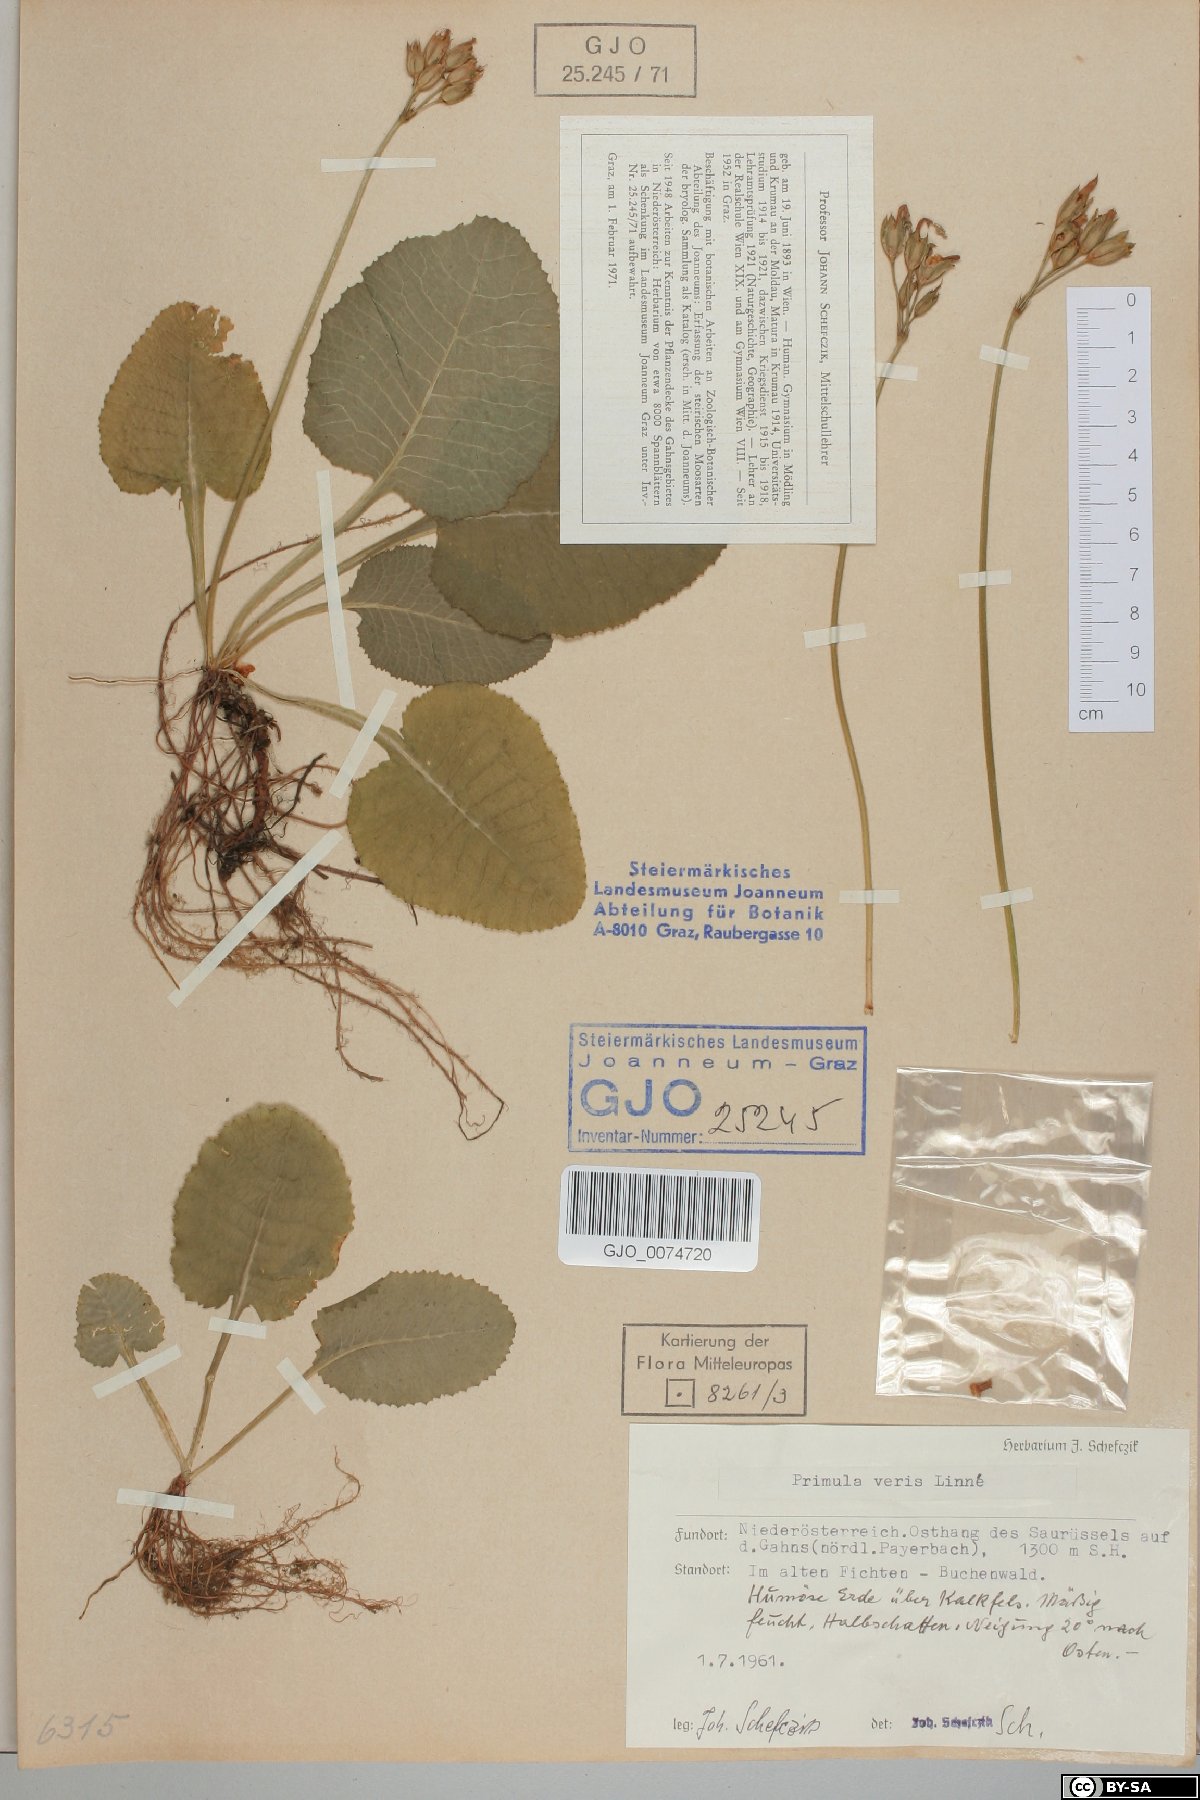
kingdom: Plantae
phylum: Tracheophyta
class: Magnoliopsida
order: Ericales
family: Primulaceae
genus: Primula
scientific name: Primula veris
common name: Cowslip
